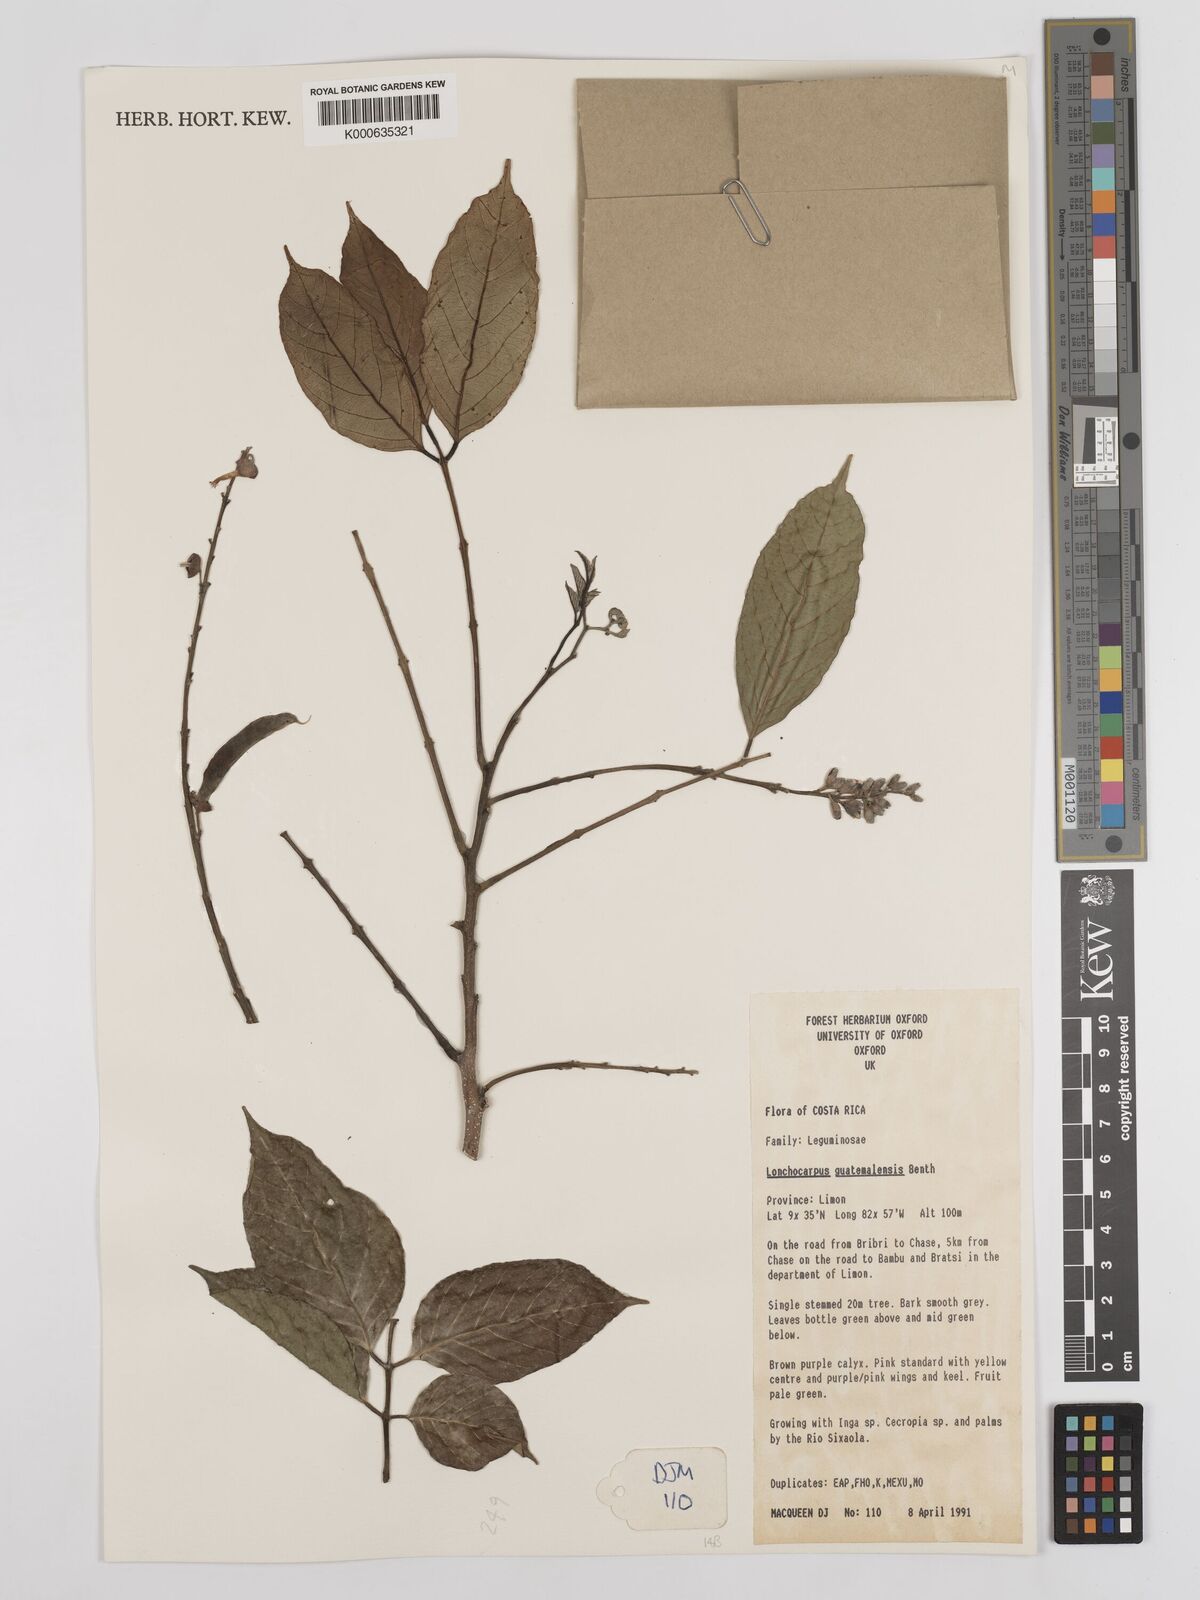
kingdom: Plantae
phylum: Tracheophyta
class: Magnoliopsida
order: Fabales
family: Fabaceae
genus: Lonchocarpus
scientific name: Lonchocarpus guatemalensis
